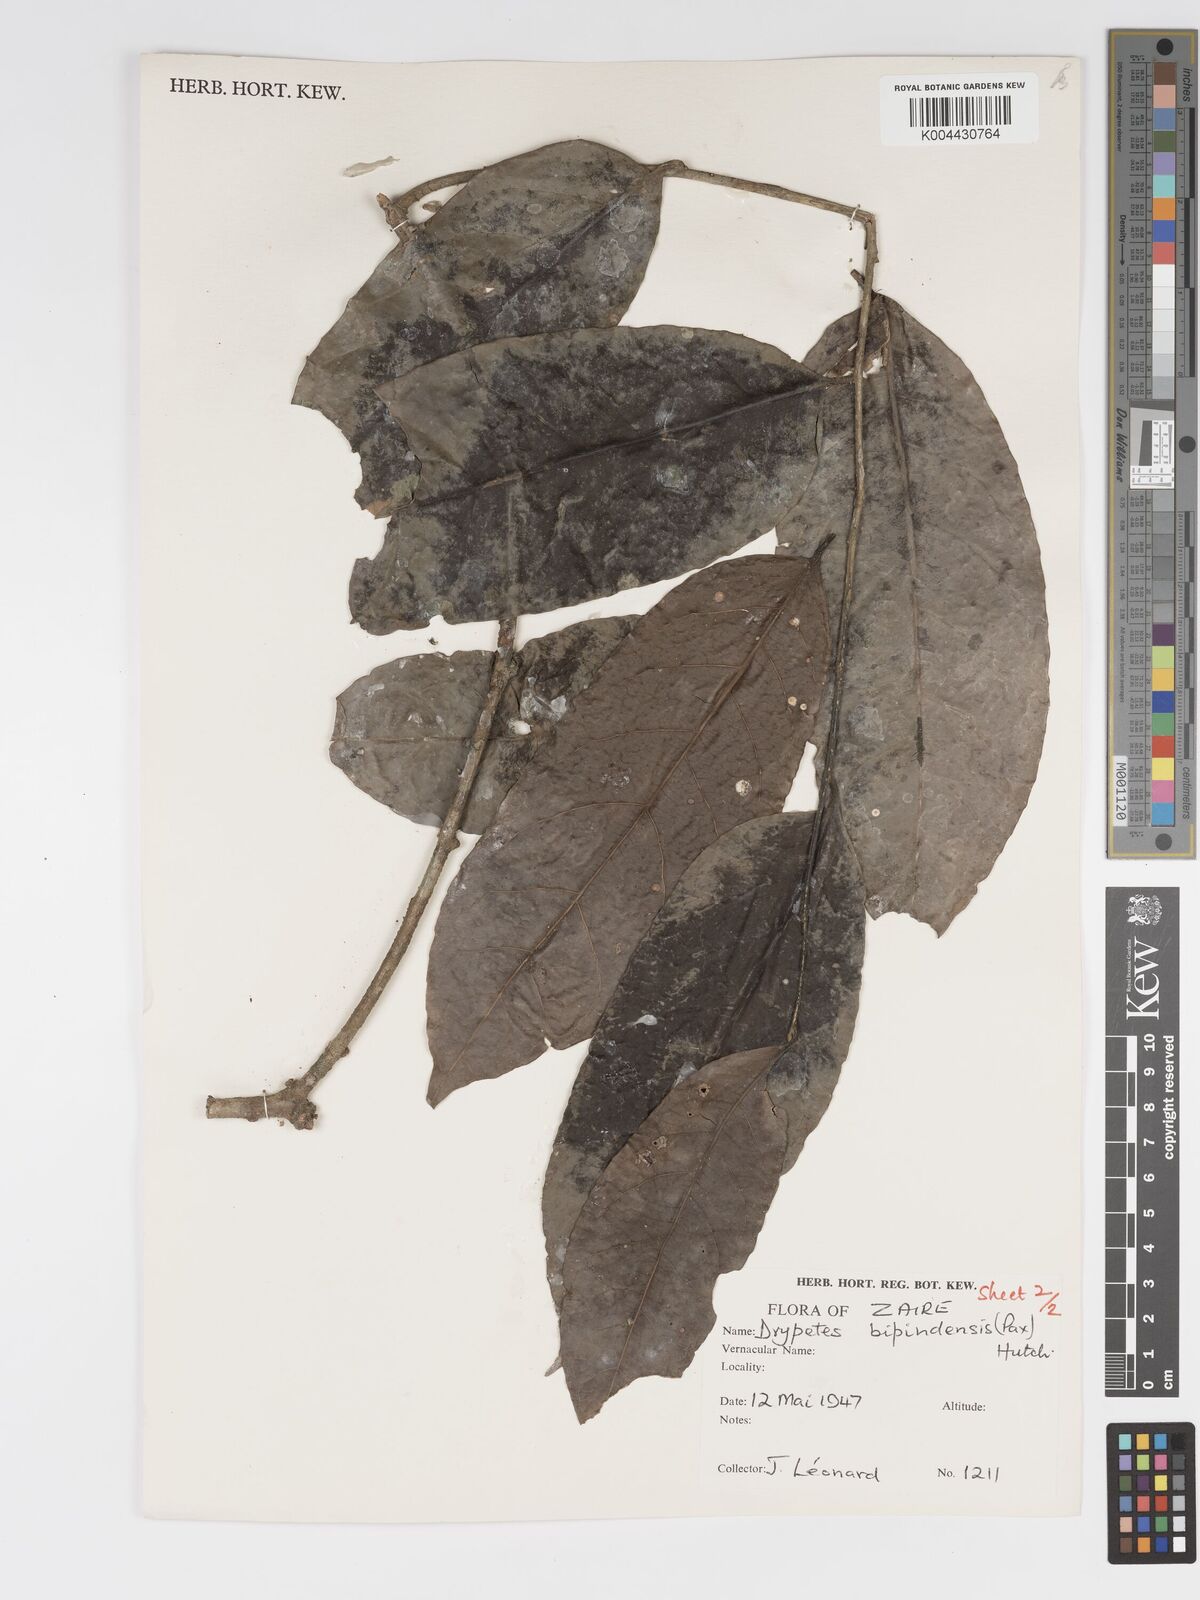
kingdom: Plantae
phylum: Tracheophyta
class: Magnoliopsida
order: Malpighiales
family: Putranjivaceae
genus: Drypetes
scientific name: Drypetes bipindensis
